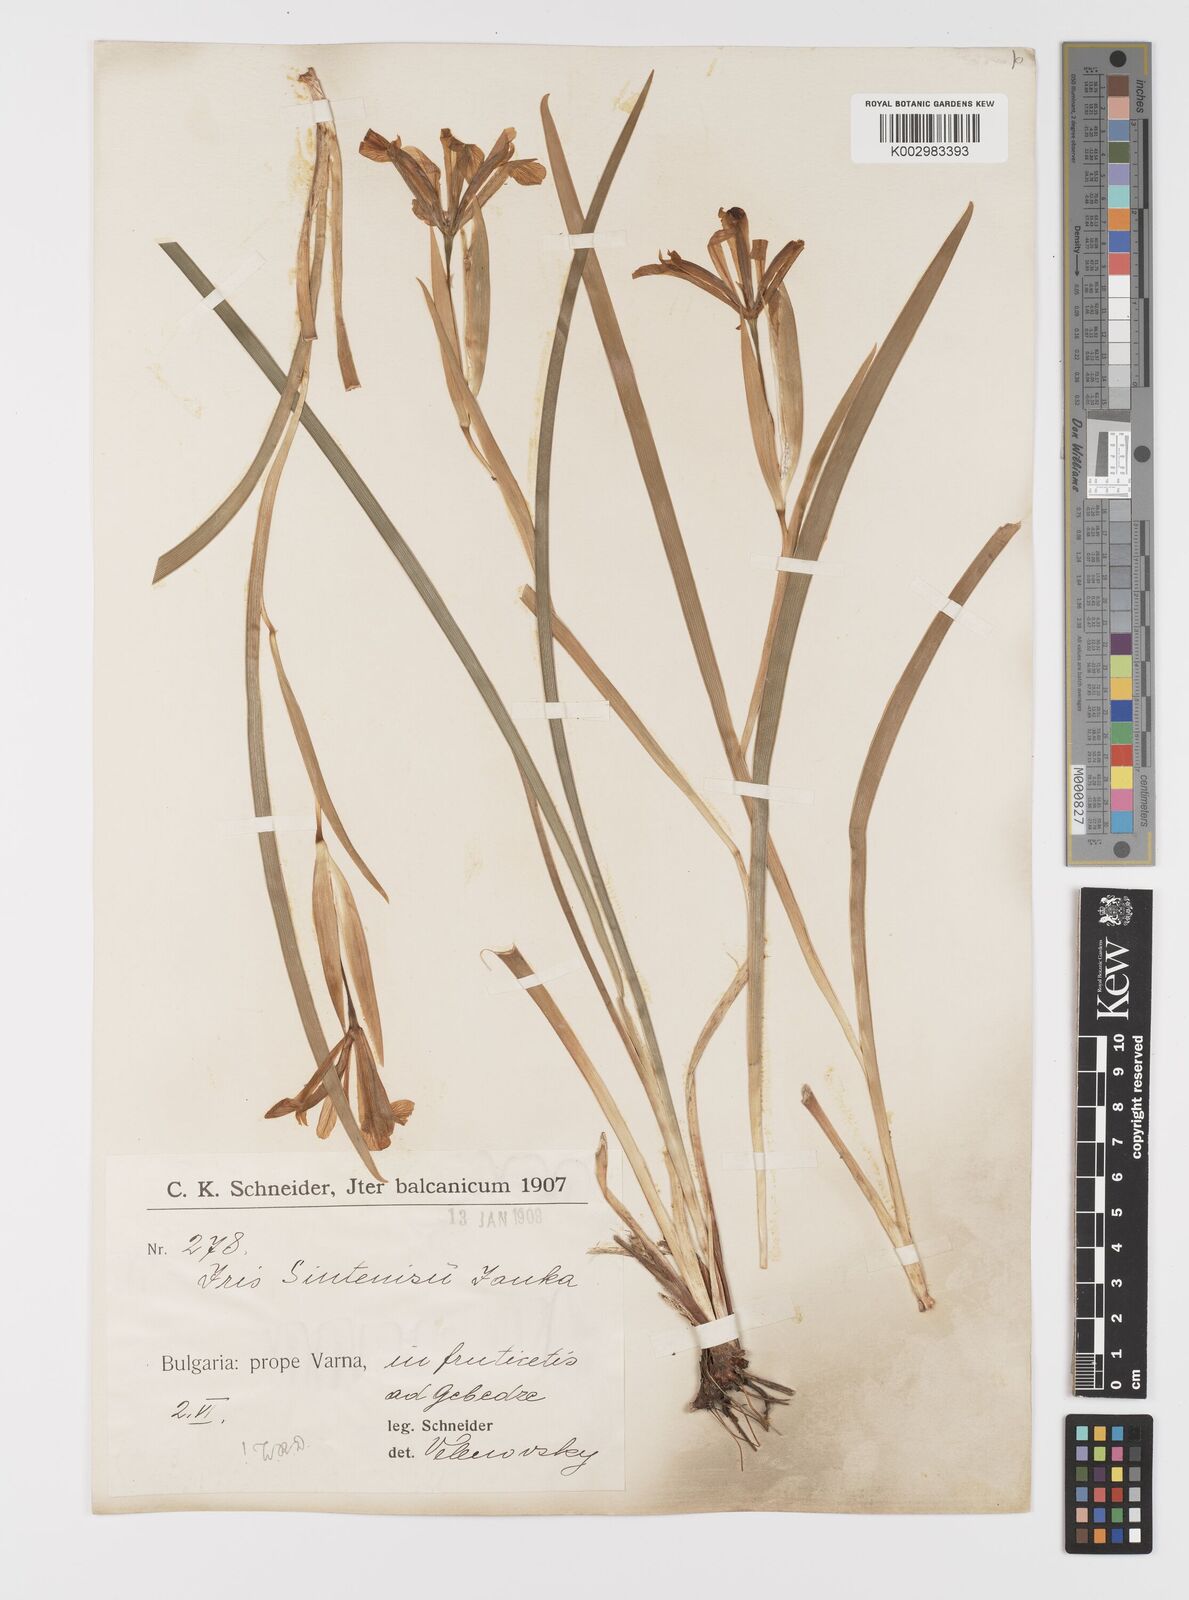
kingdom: Plantae
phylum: Tracheophyta
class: Liliopsida
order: Asparagales
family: Iridaceae
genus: Iris
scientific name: Iris sintenisii
